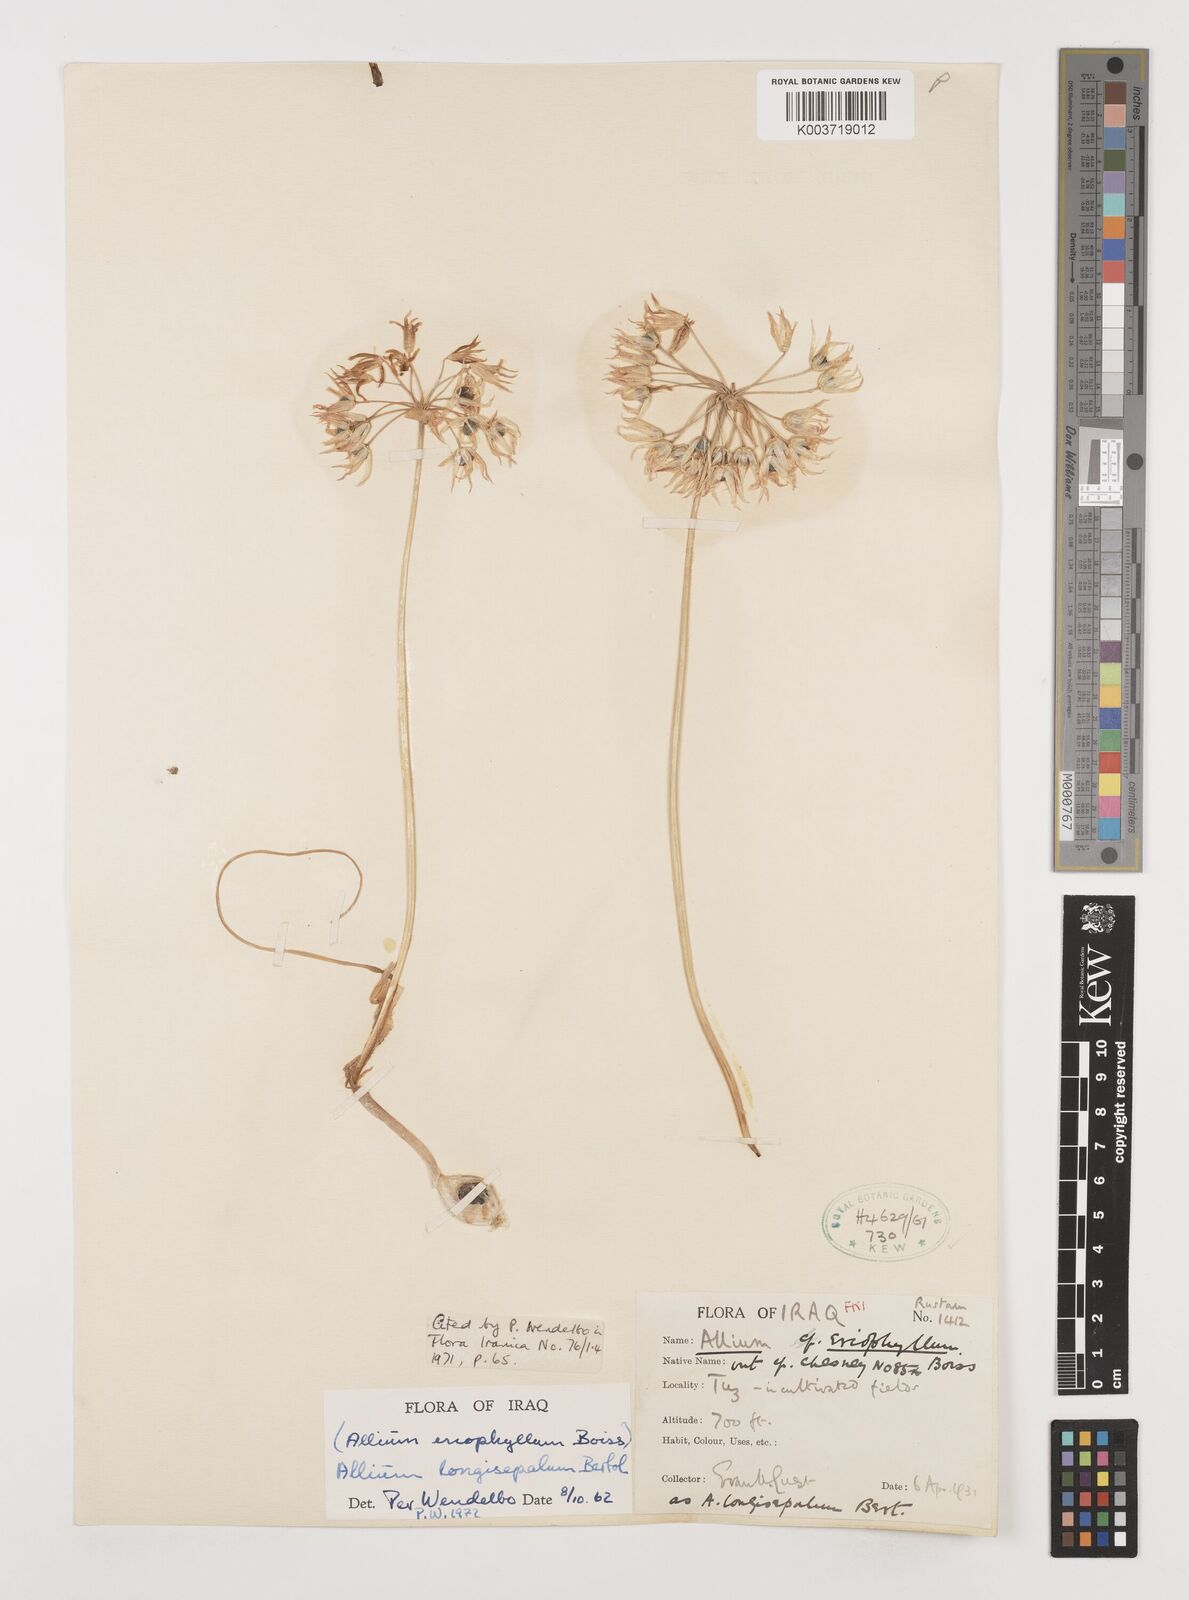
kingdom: Plantae
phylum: Tracheophyta
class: Liliopsida
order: Asparagales
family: Amaryllidaceae
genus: Allium
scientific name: Allium longisepalum
